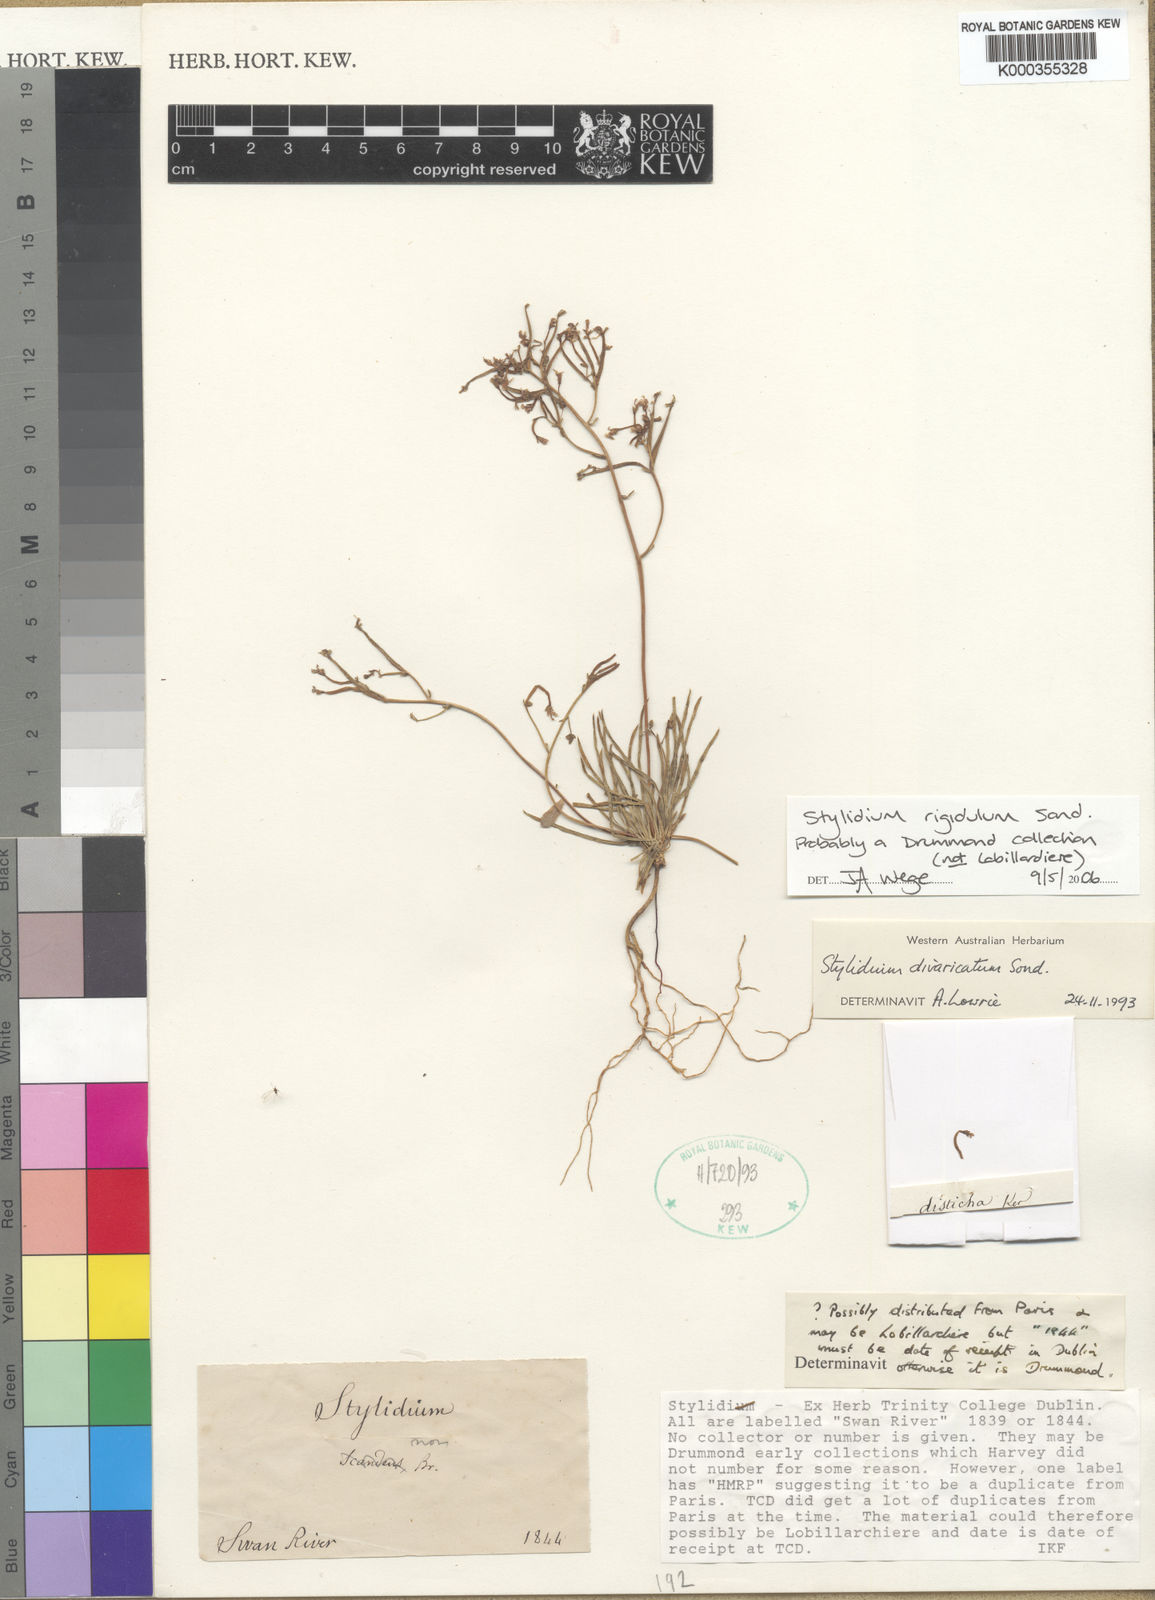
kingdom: Plantae
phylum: Tracheophyta
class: Magnoliopsida
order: Asterales
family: Stylidiaceae
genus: Stylidium
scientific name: Stylidium rigidulum
